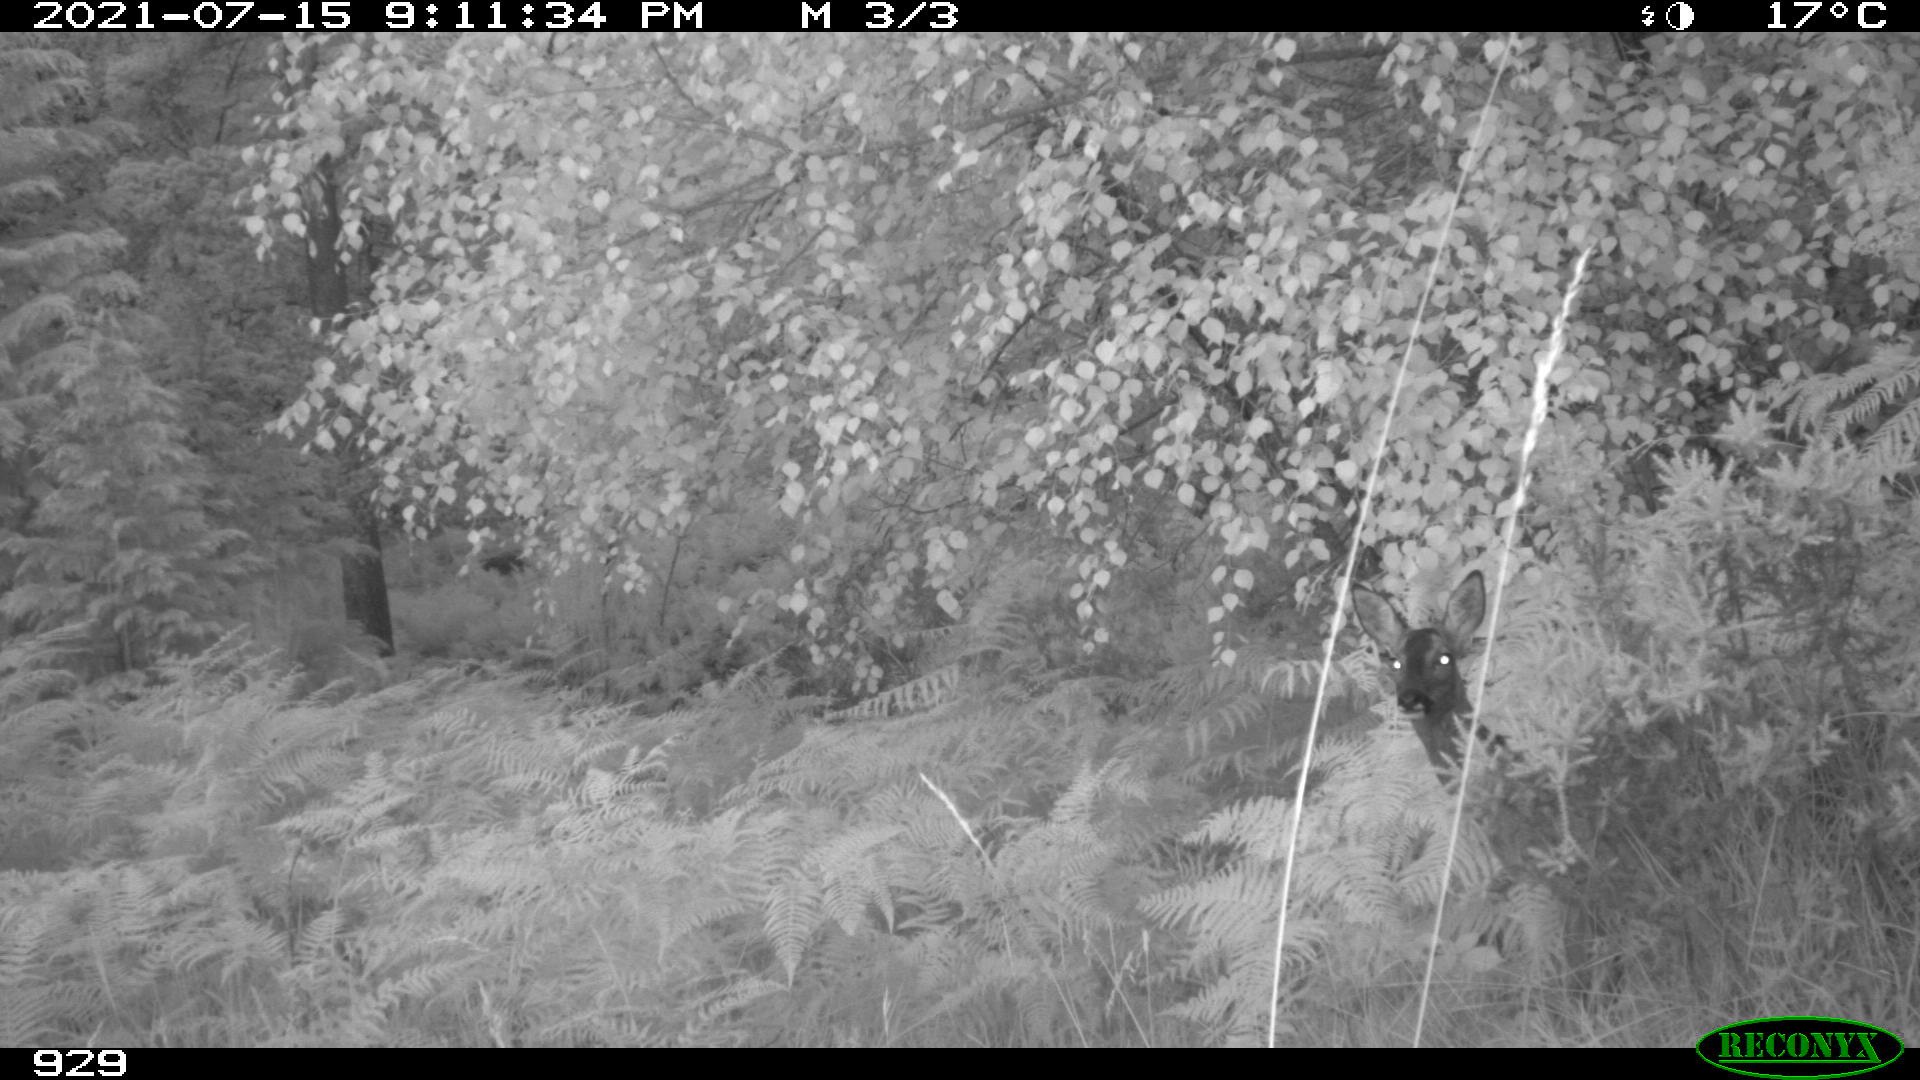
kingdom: Animalia
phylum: Chordata
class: Mammalia
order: Artiodactyla
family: Cervidae
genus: Capreolus
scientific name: Capreolus capreolus
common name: Western roe deer
